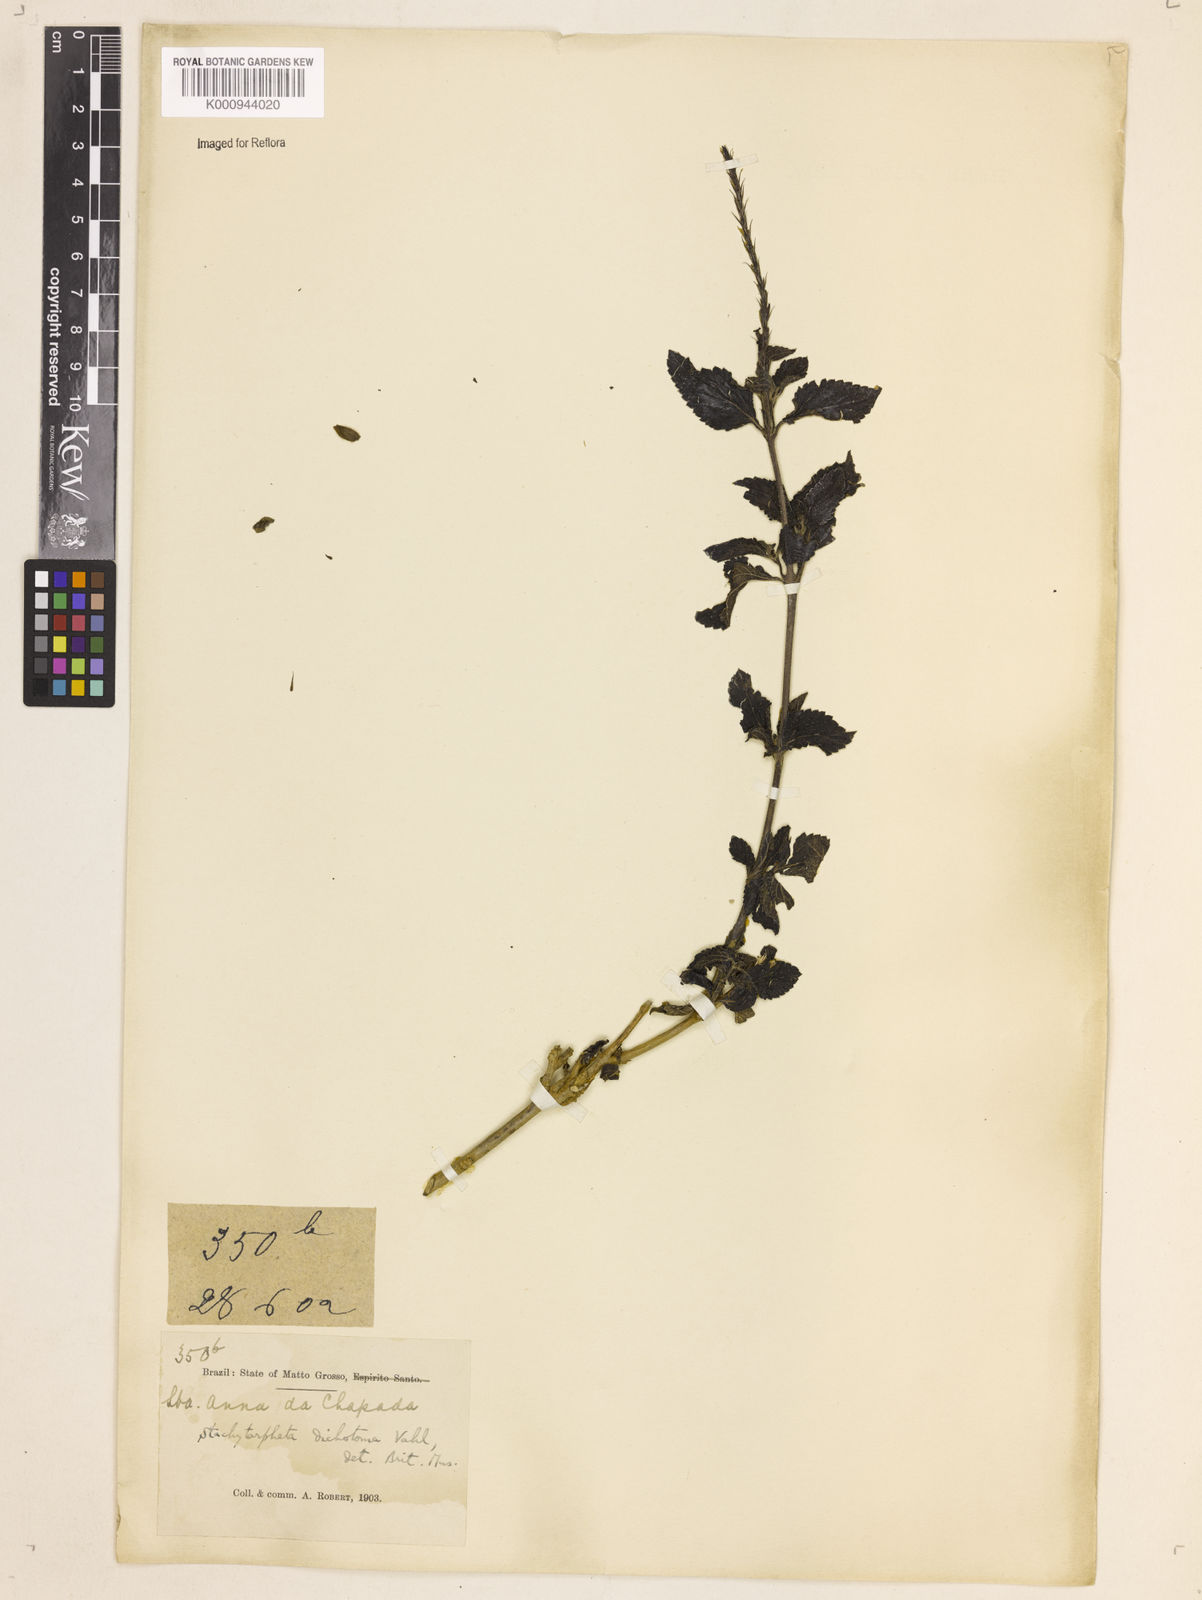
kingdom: Plantae
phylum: Tracheophyta
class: Magnoliopsida
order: Lamiales
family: Verbenaceae
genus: Aloysia
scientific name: Aloysia
